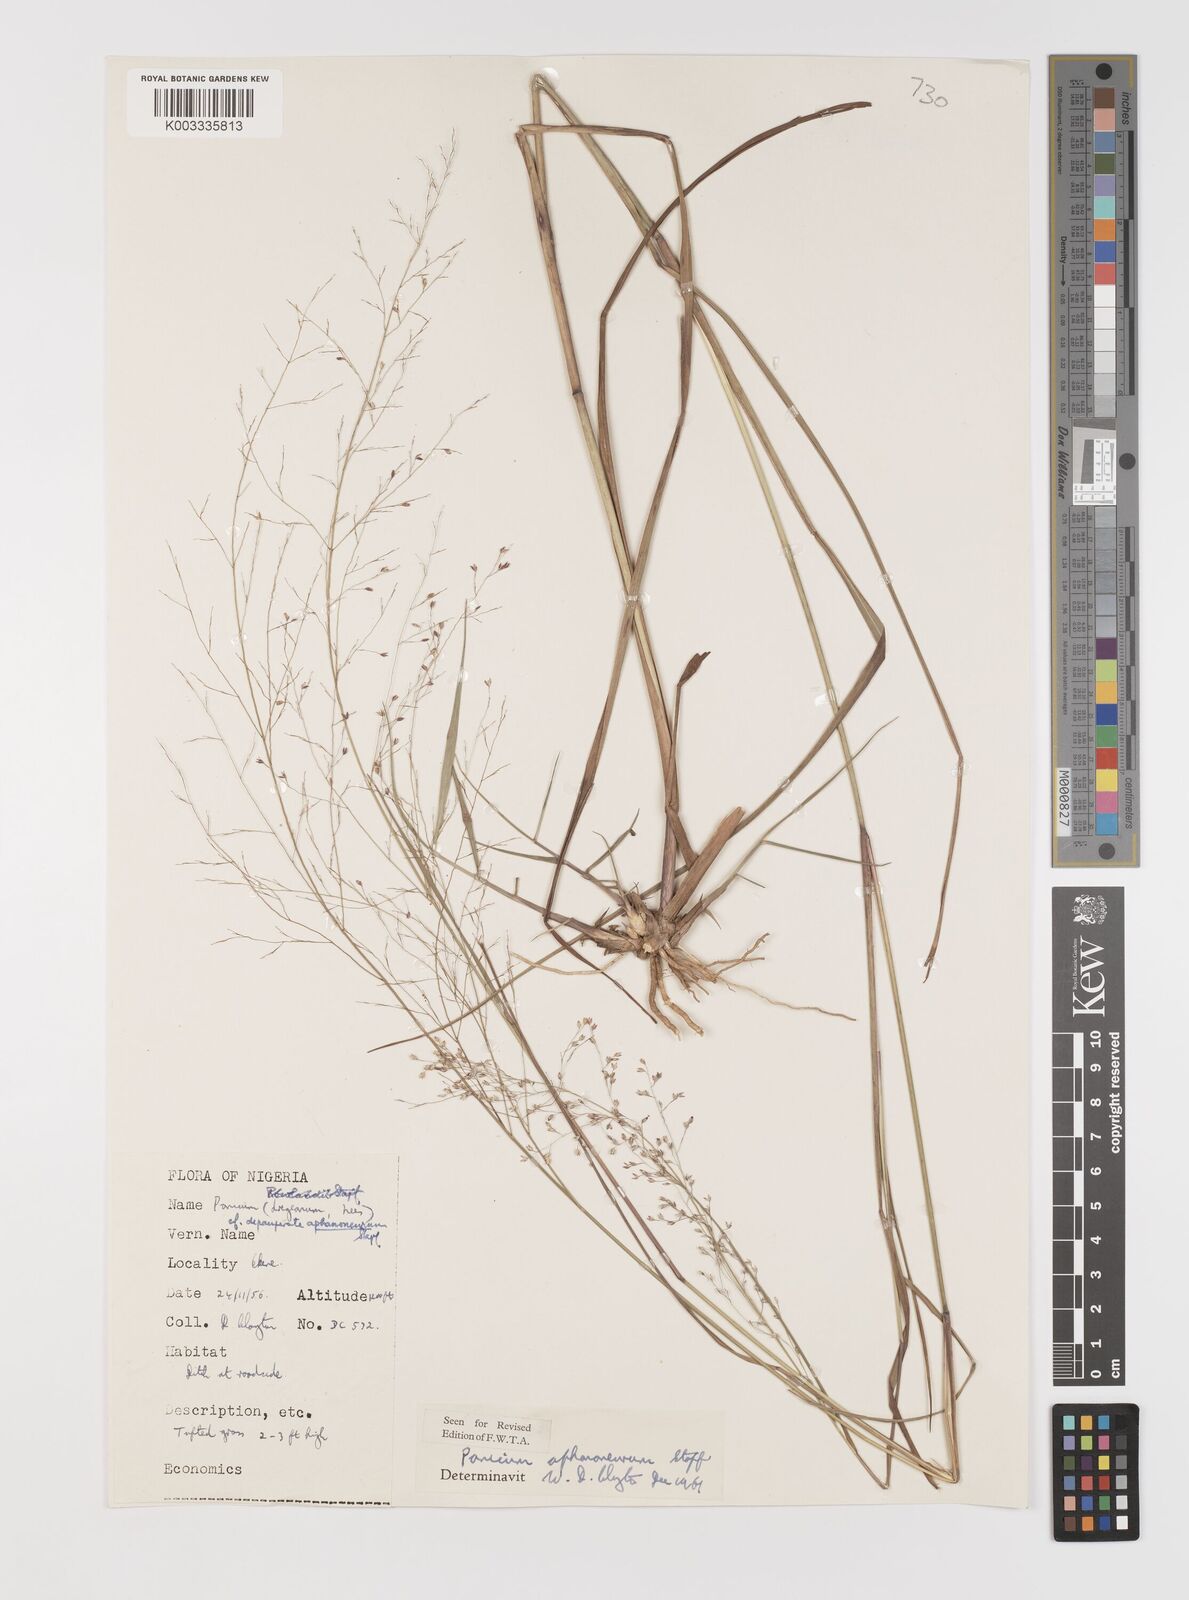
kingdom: Plantae
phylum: Tracheophyta
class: Liliopsida
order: Poales
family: Poaceae
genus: Panicum
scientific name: Panicum fluviicola
